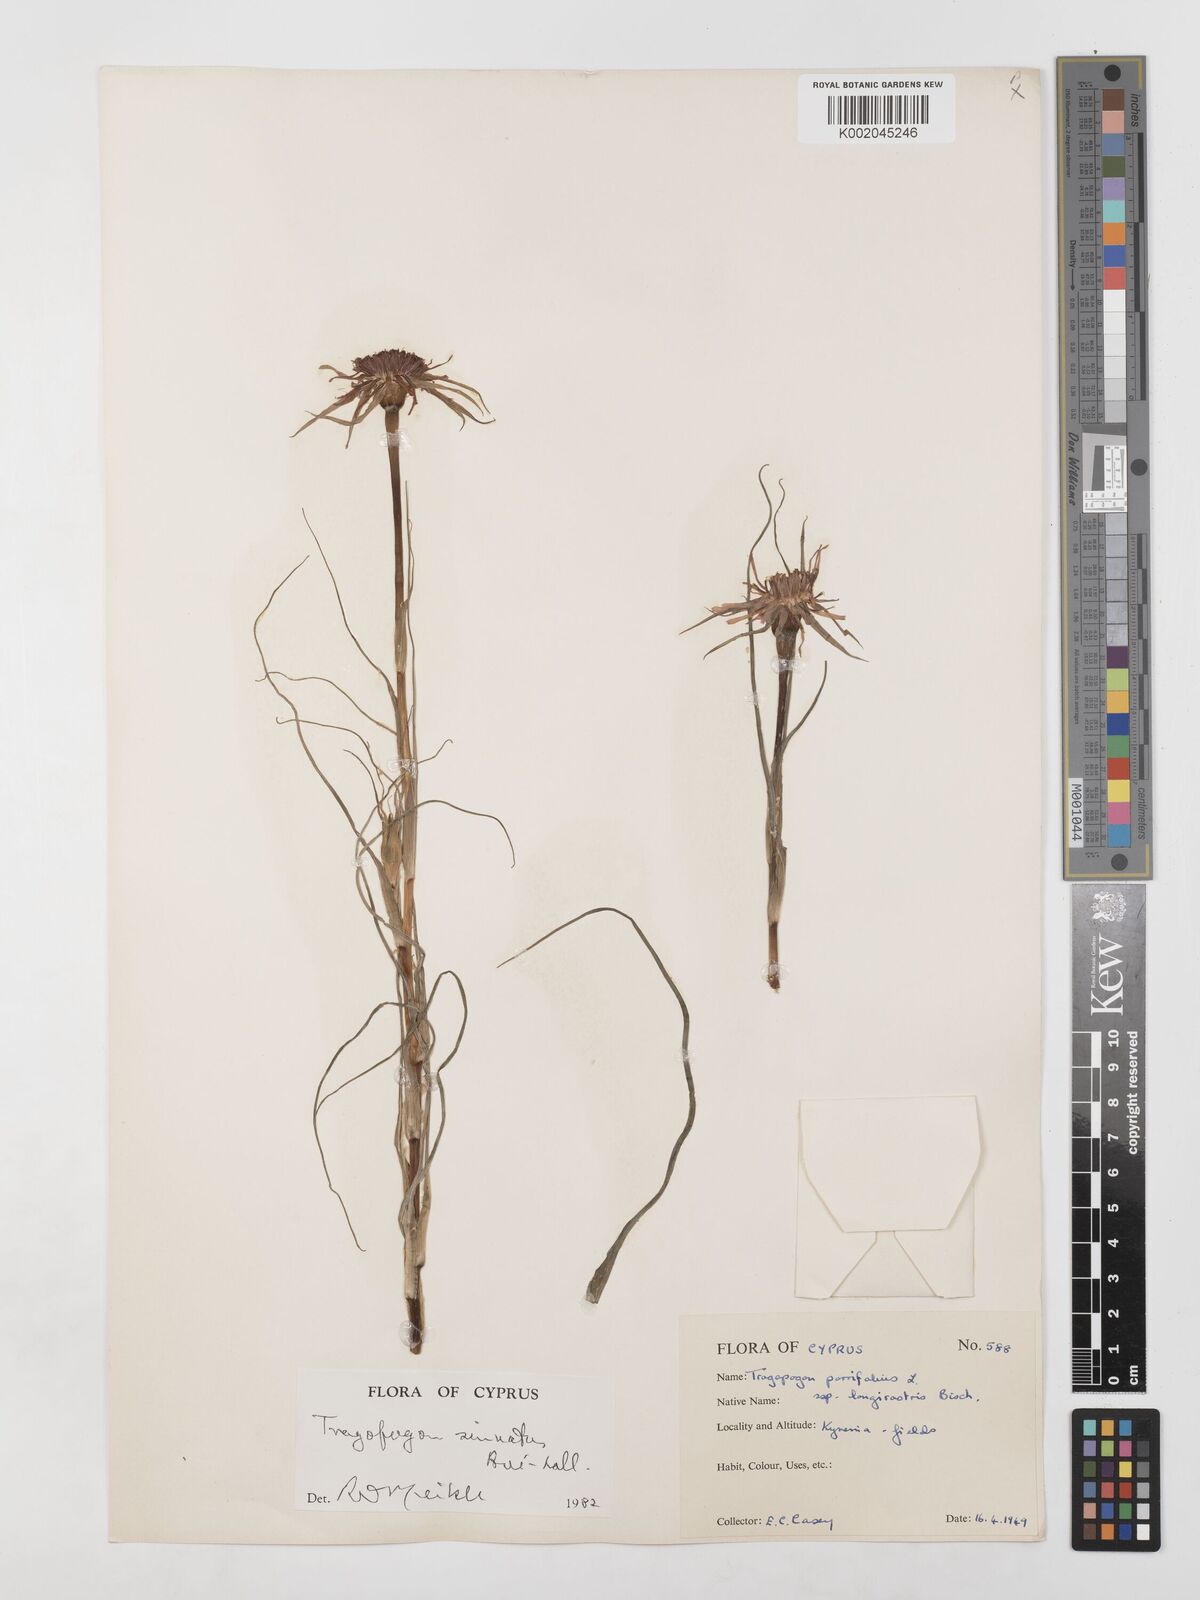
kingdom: Plantae
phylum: Tracheophyta
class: Magnoliopsida
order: Asterales
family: Asteraceae
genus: Tragopogon
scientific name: Tragopogon coelesyriacus
